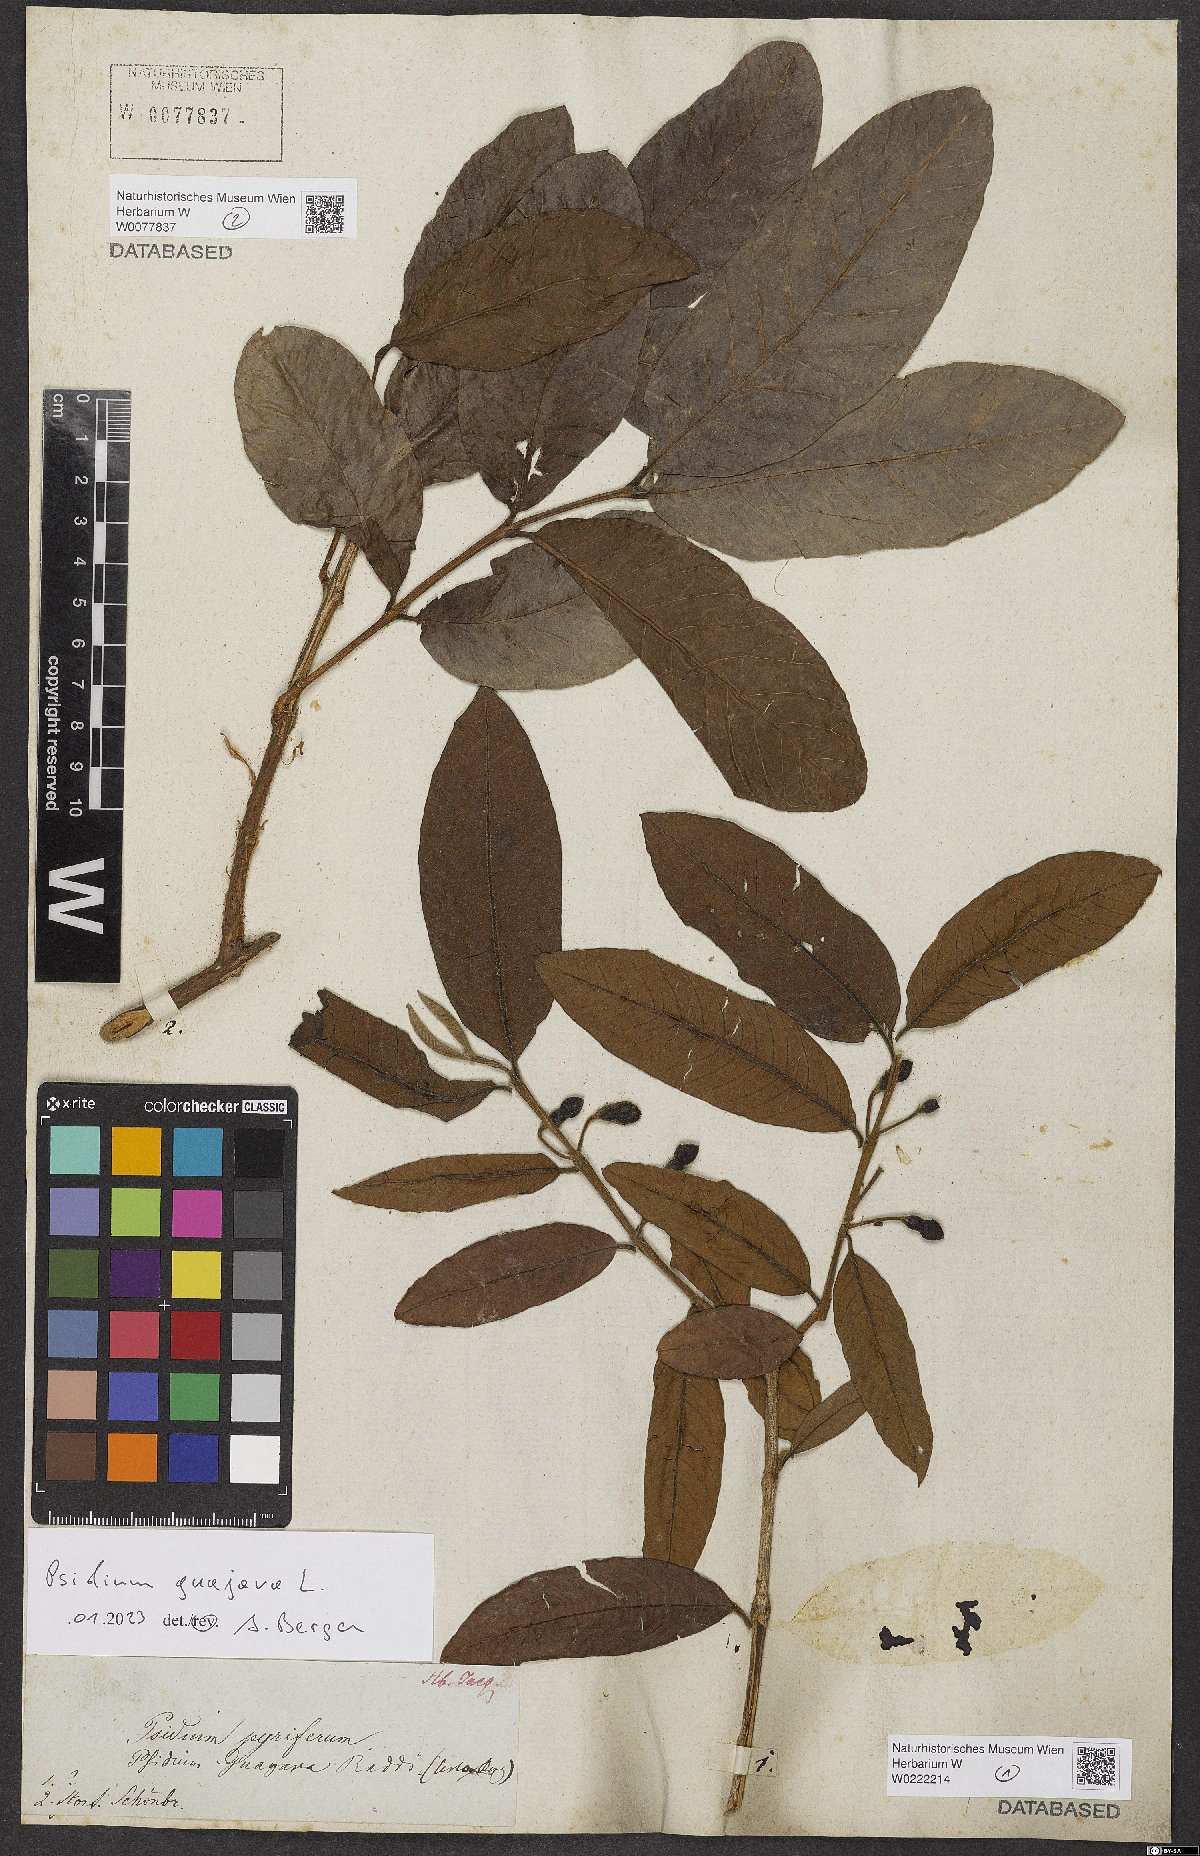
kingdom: Plantae
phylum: Tracheophyta
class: Magnoliopsida
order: Myrtales
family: Myrtaceae
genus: Psidium
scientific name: Psidium guajava
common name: Guava
